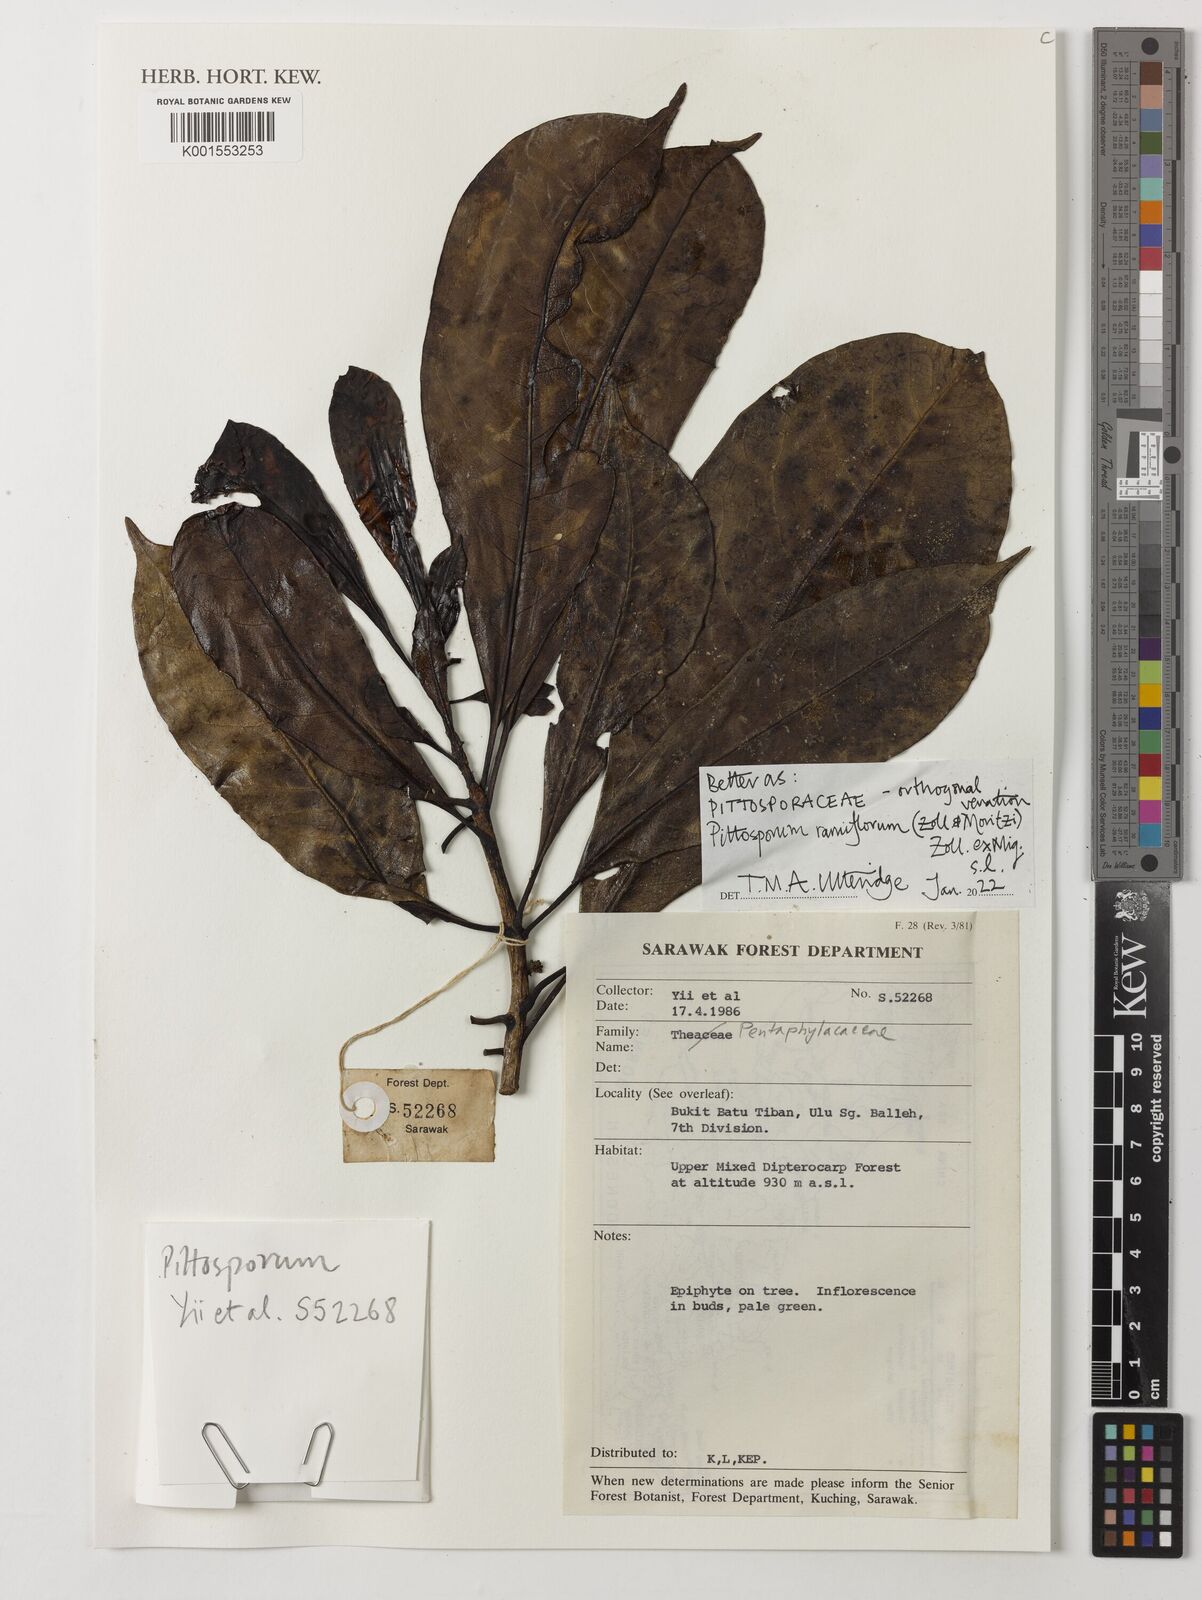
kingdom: Plantae
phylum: Tracheophyta
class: Magnoliopsida
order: Apiales
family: Pittosporaceae
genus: Pittosporum
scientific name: Pittosporum ramiflorum
